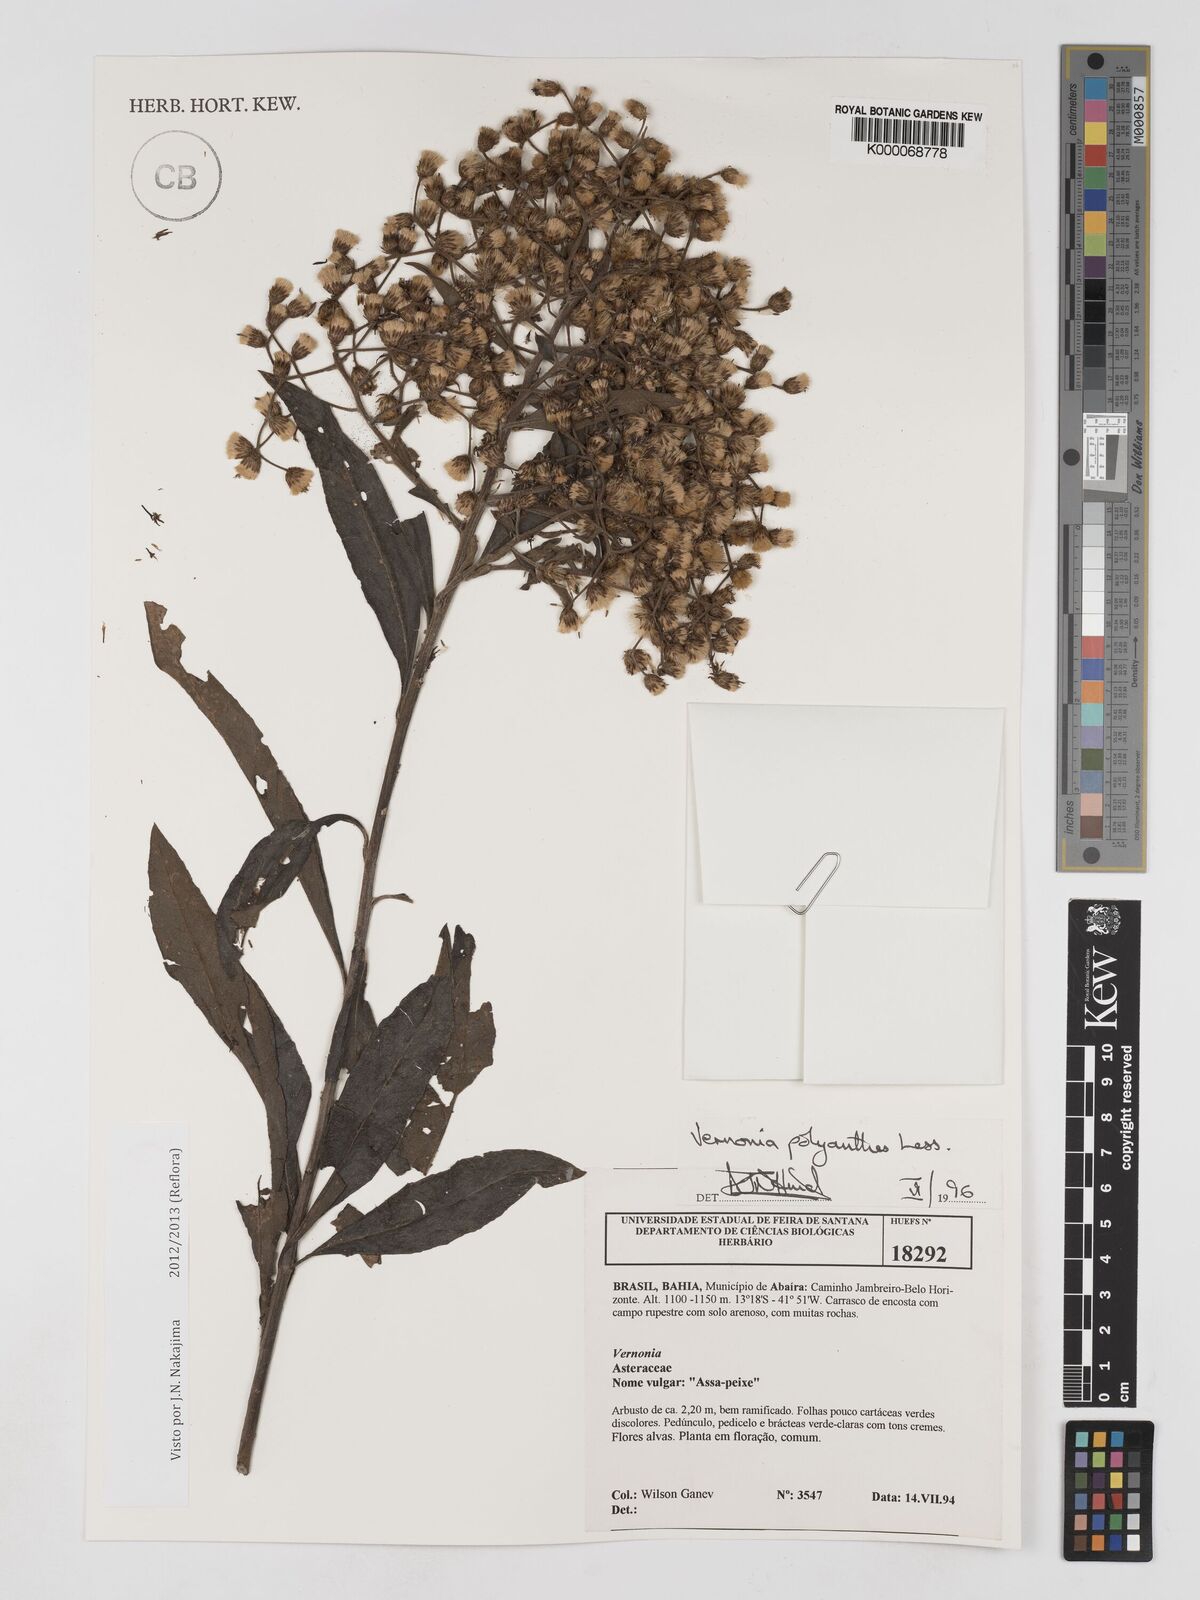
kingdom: Plantae
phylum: Tracheophyta
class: Magnoliopsida
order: Asterales
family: Asteraceae
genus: Vernonanthura
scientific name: Vernonanthura polyanthes
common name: Tree aster
